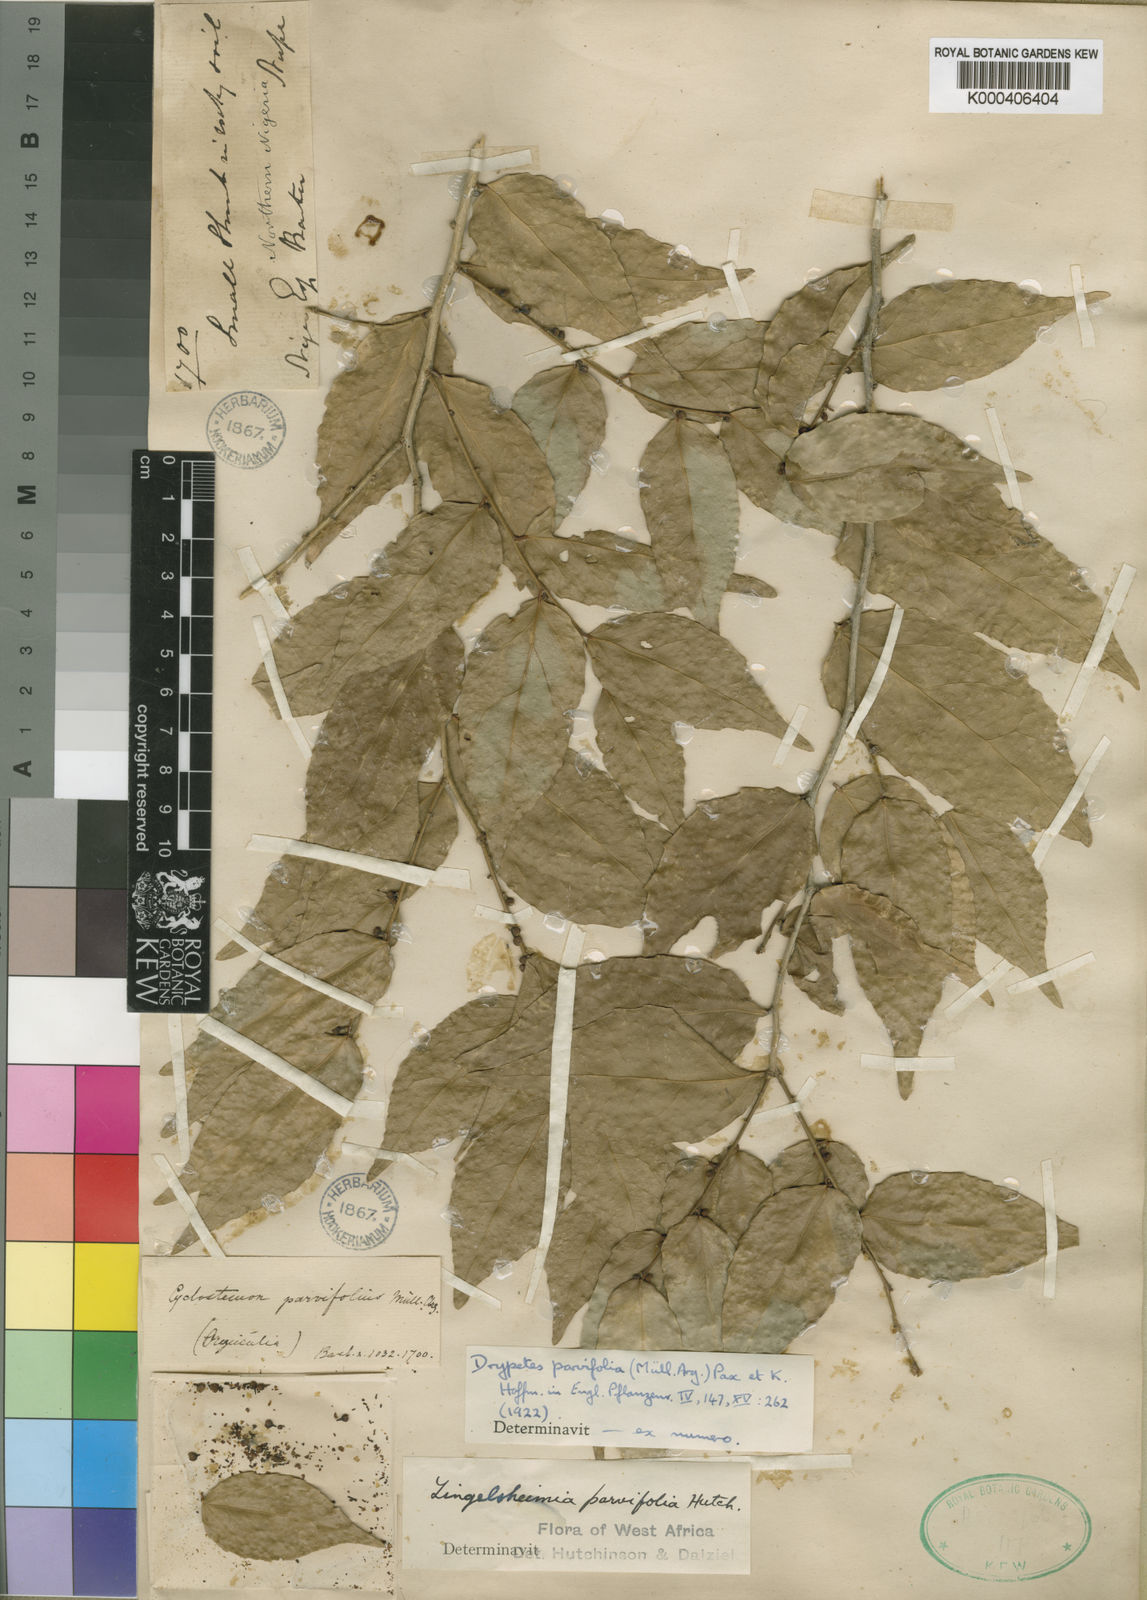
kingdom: Plantae
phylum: Tracheophyta
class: Magnoliopsida
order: Malpighiales
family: Putranjivaceae
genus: Drypetes
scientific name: Drypetes
